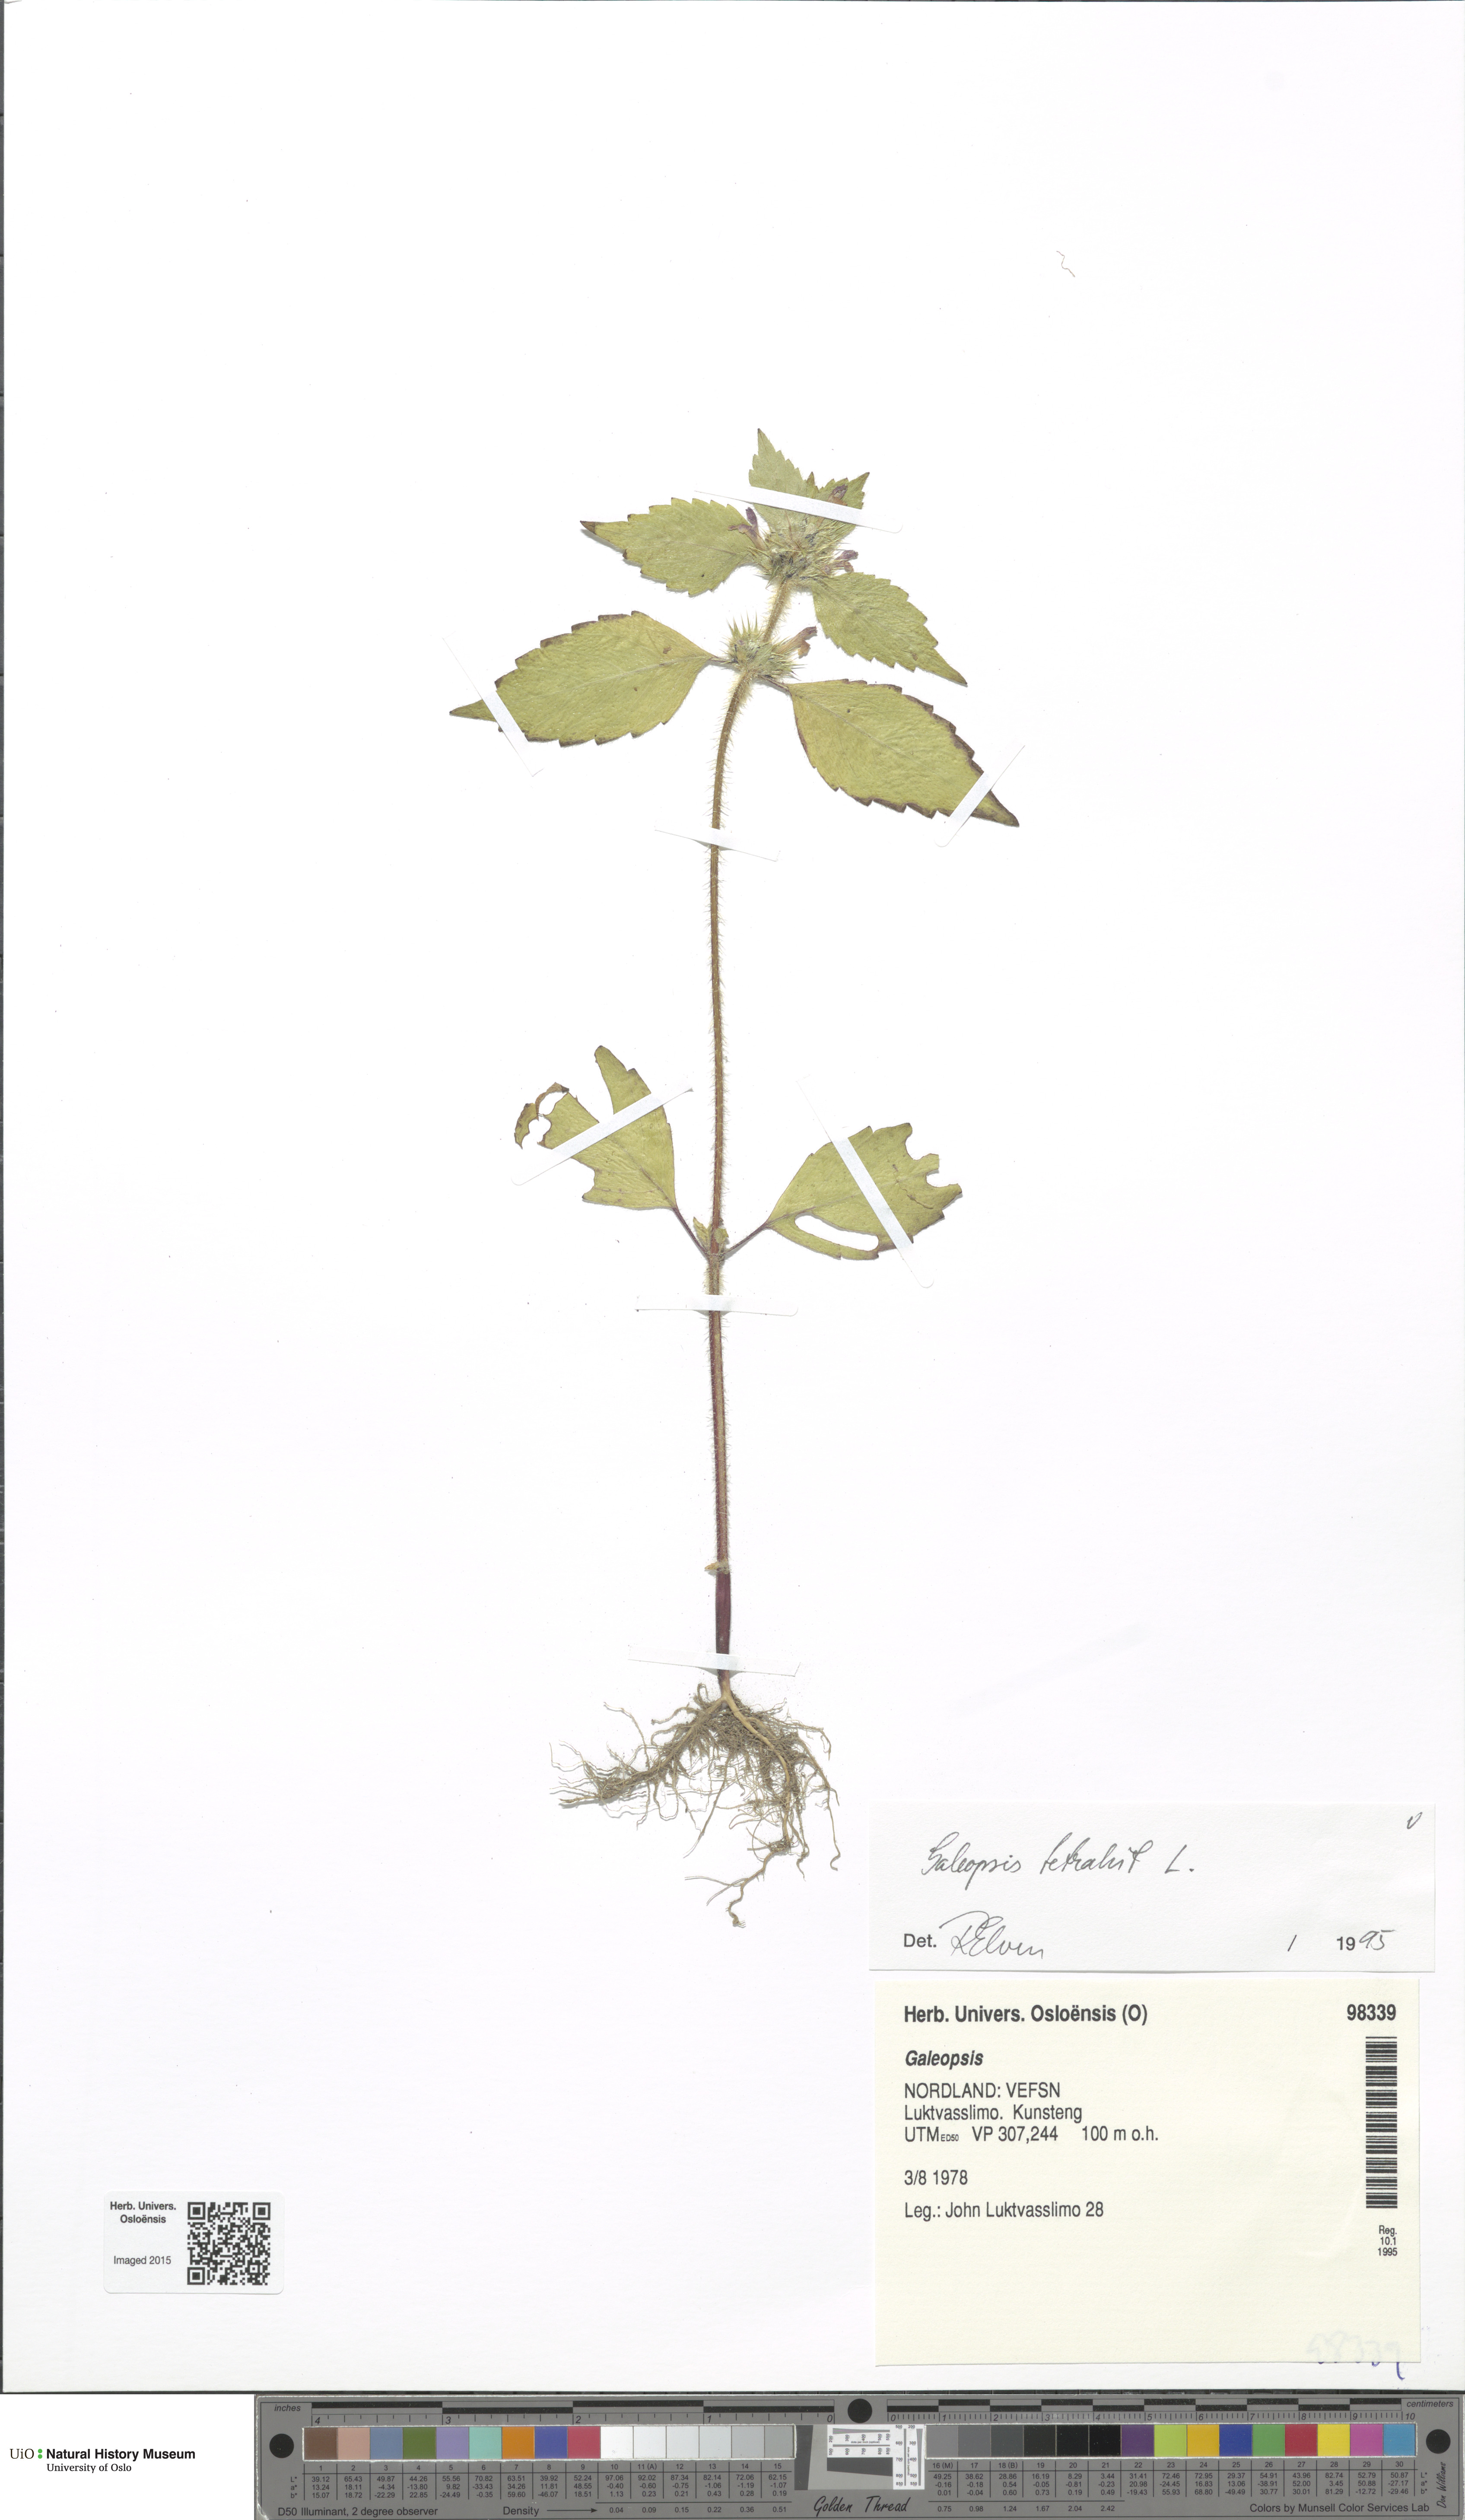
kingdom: Plantae
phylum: Tracheophyta
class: Magnoliopsida
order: Lamiales
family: Lamiaceae
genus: Galeopsis
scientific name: Galeopsis tetrahit
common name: Common hemp-nettle
